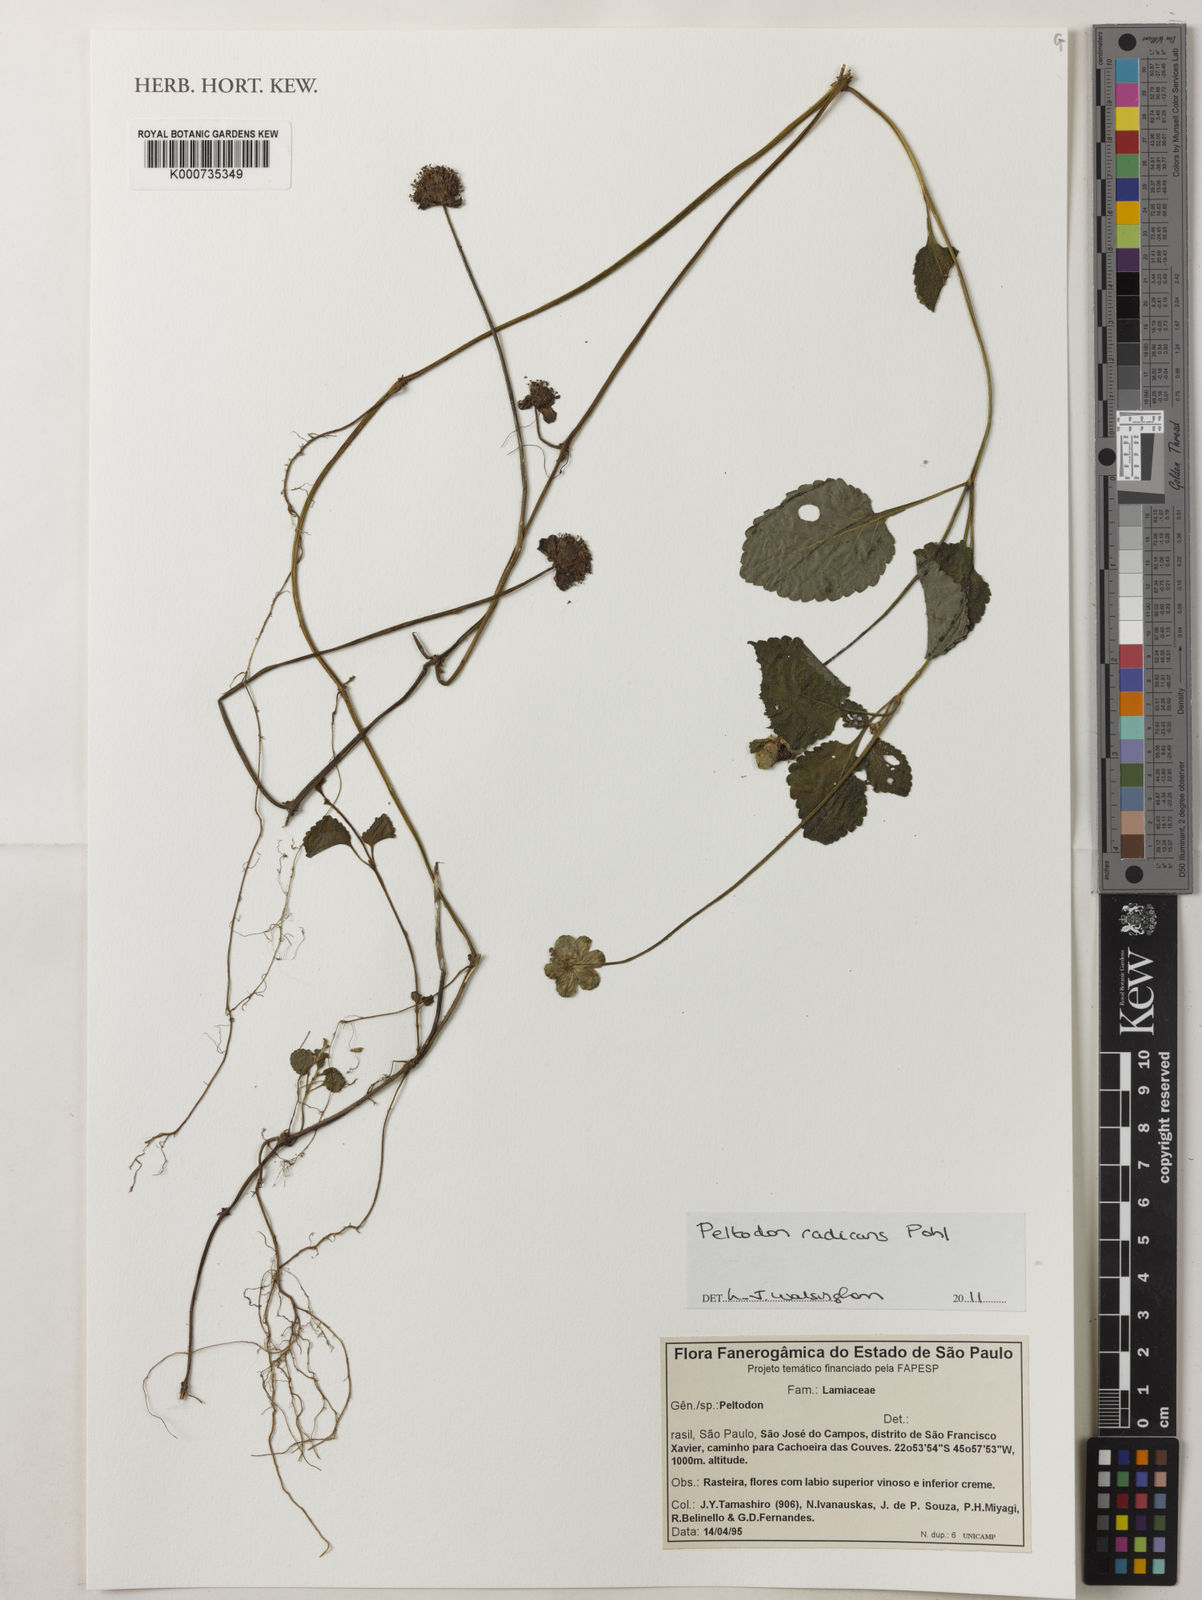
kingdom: Plantae
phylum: Tracheophyta
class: Magnoliopsida
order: Lamiales
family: Lamiaceae
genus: Hyptis
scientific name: Hyptis radicans
